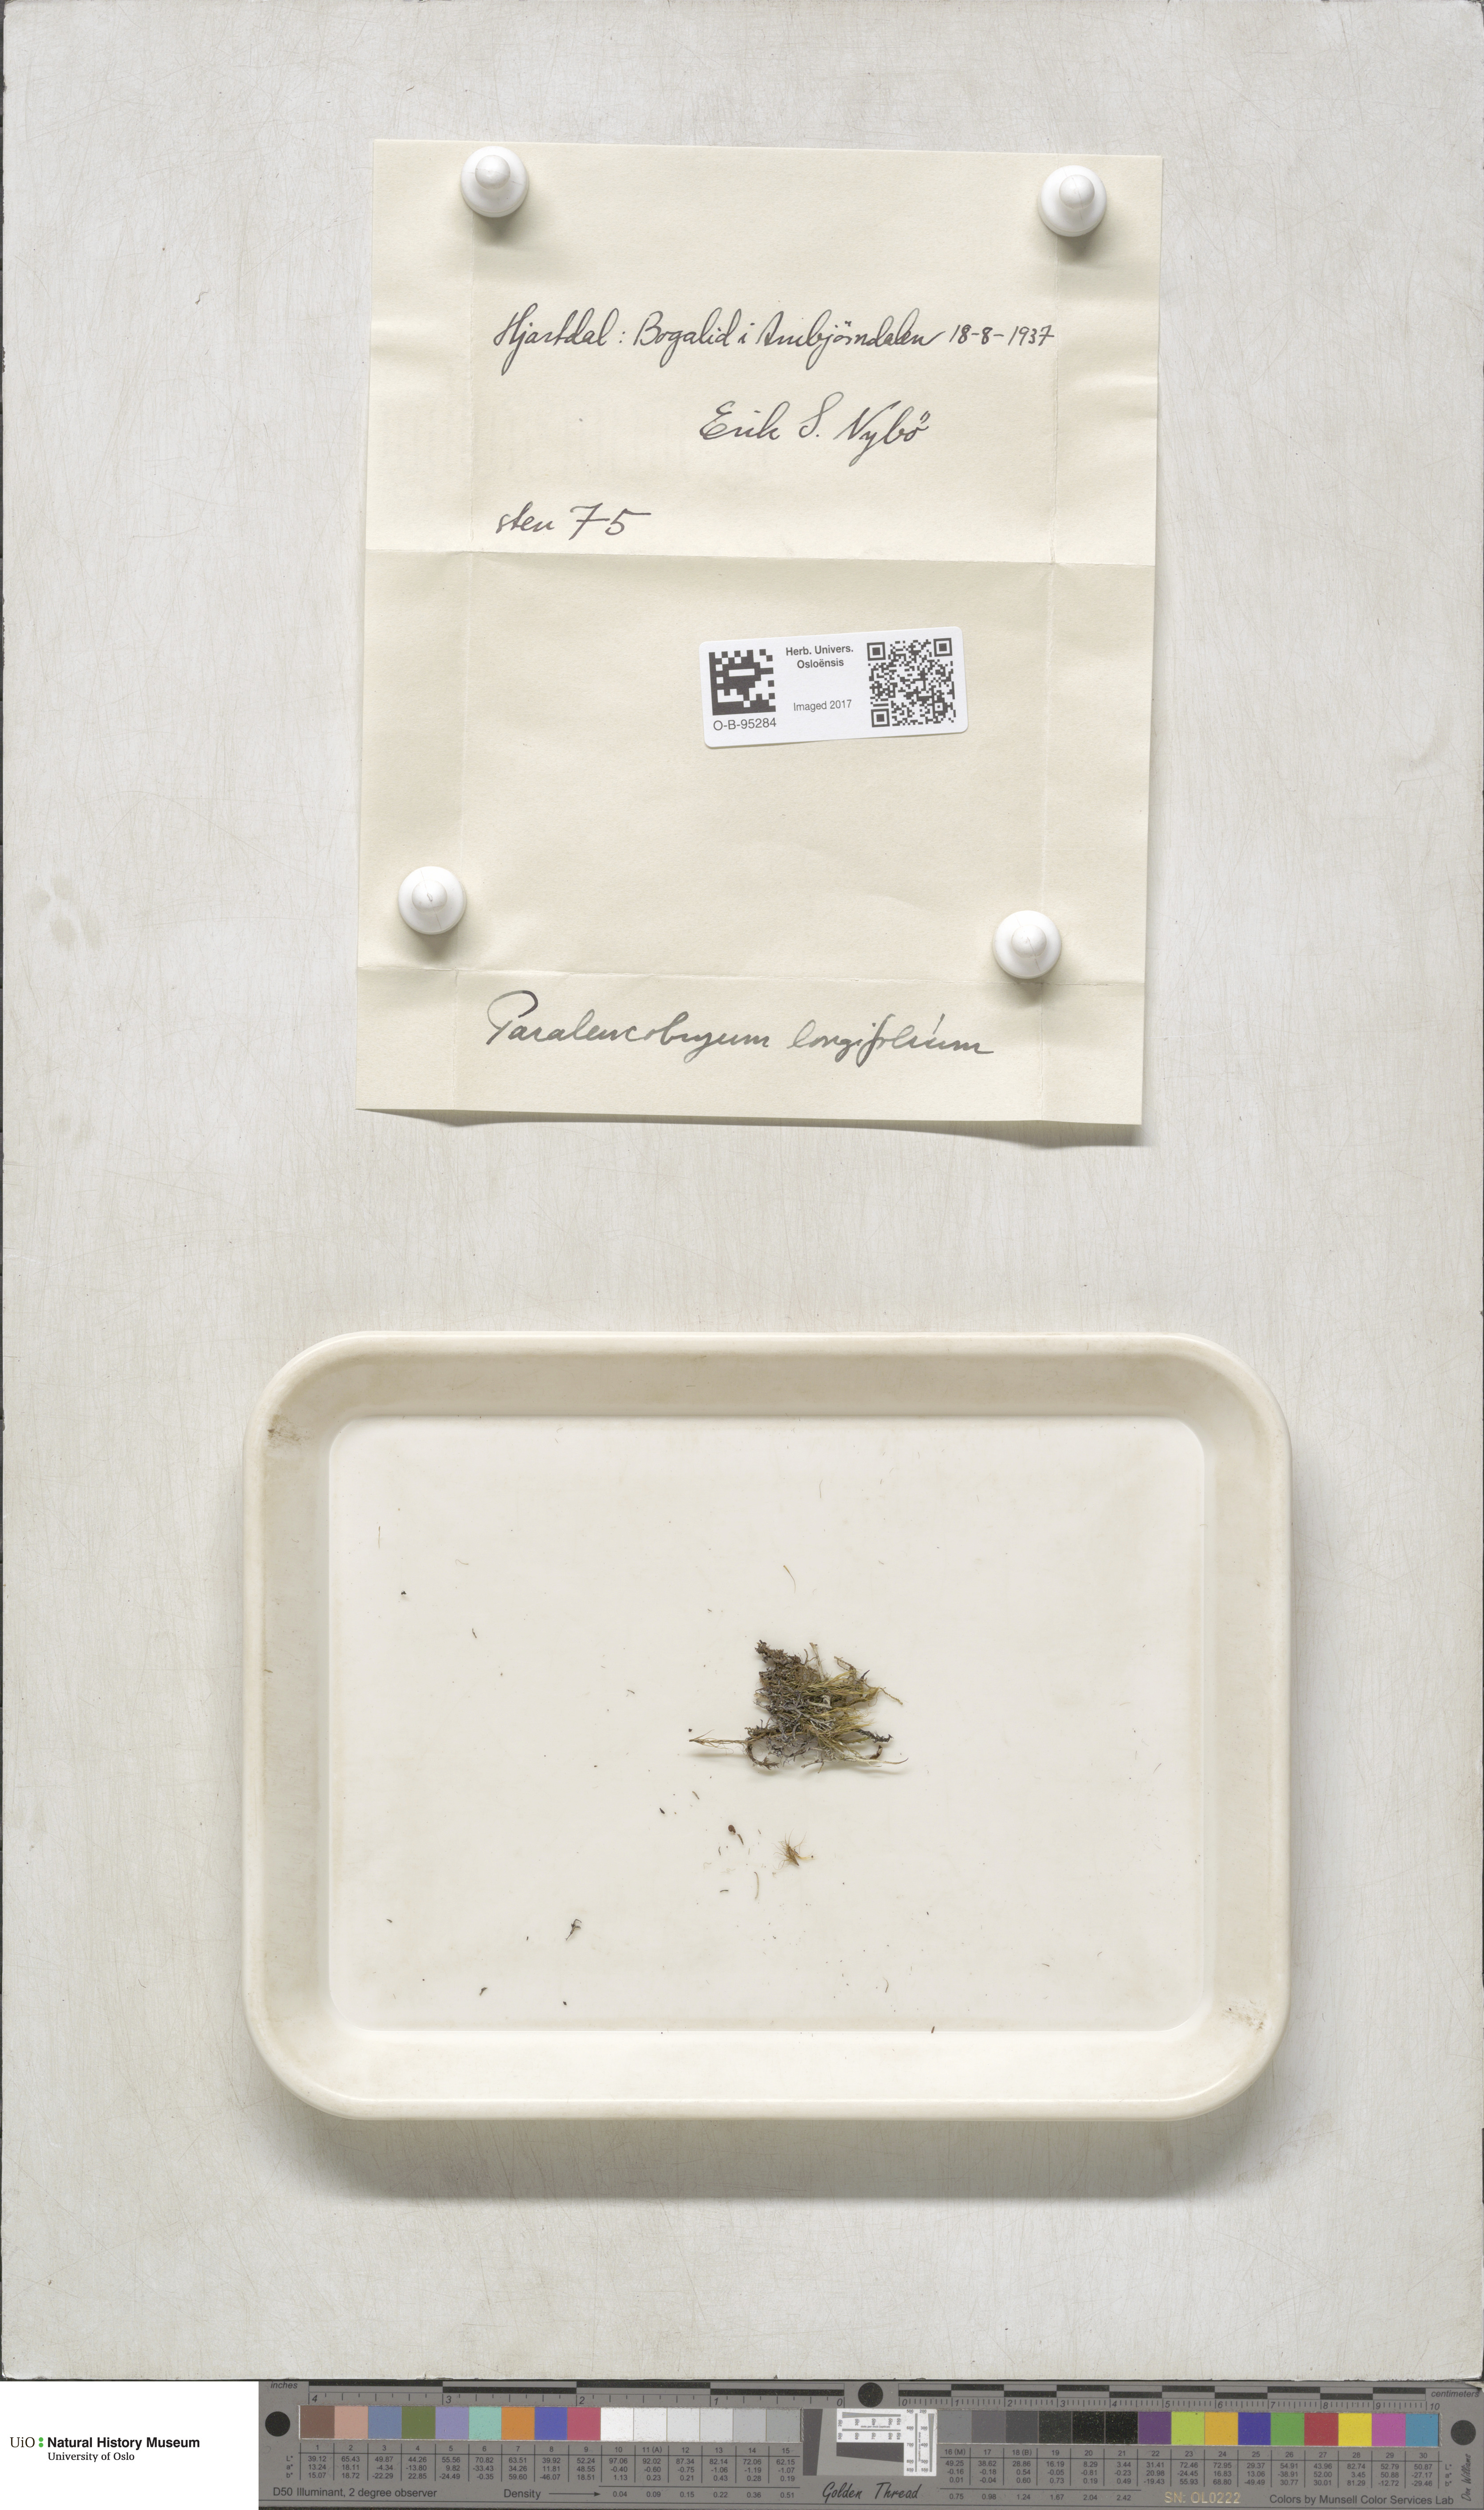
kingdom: Plantae
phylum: Bryophyta
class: Bryopsida
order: Dicranales
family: Dicranaceae
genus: Paraleucobryum
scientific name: Paraleucobryum longifolium
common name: Long-leaved fork moss
